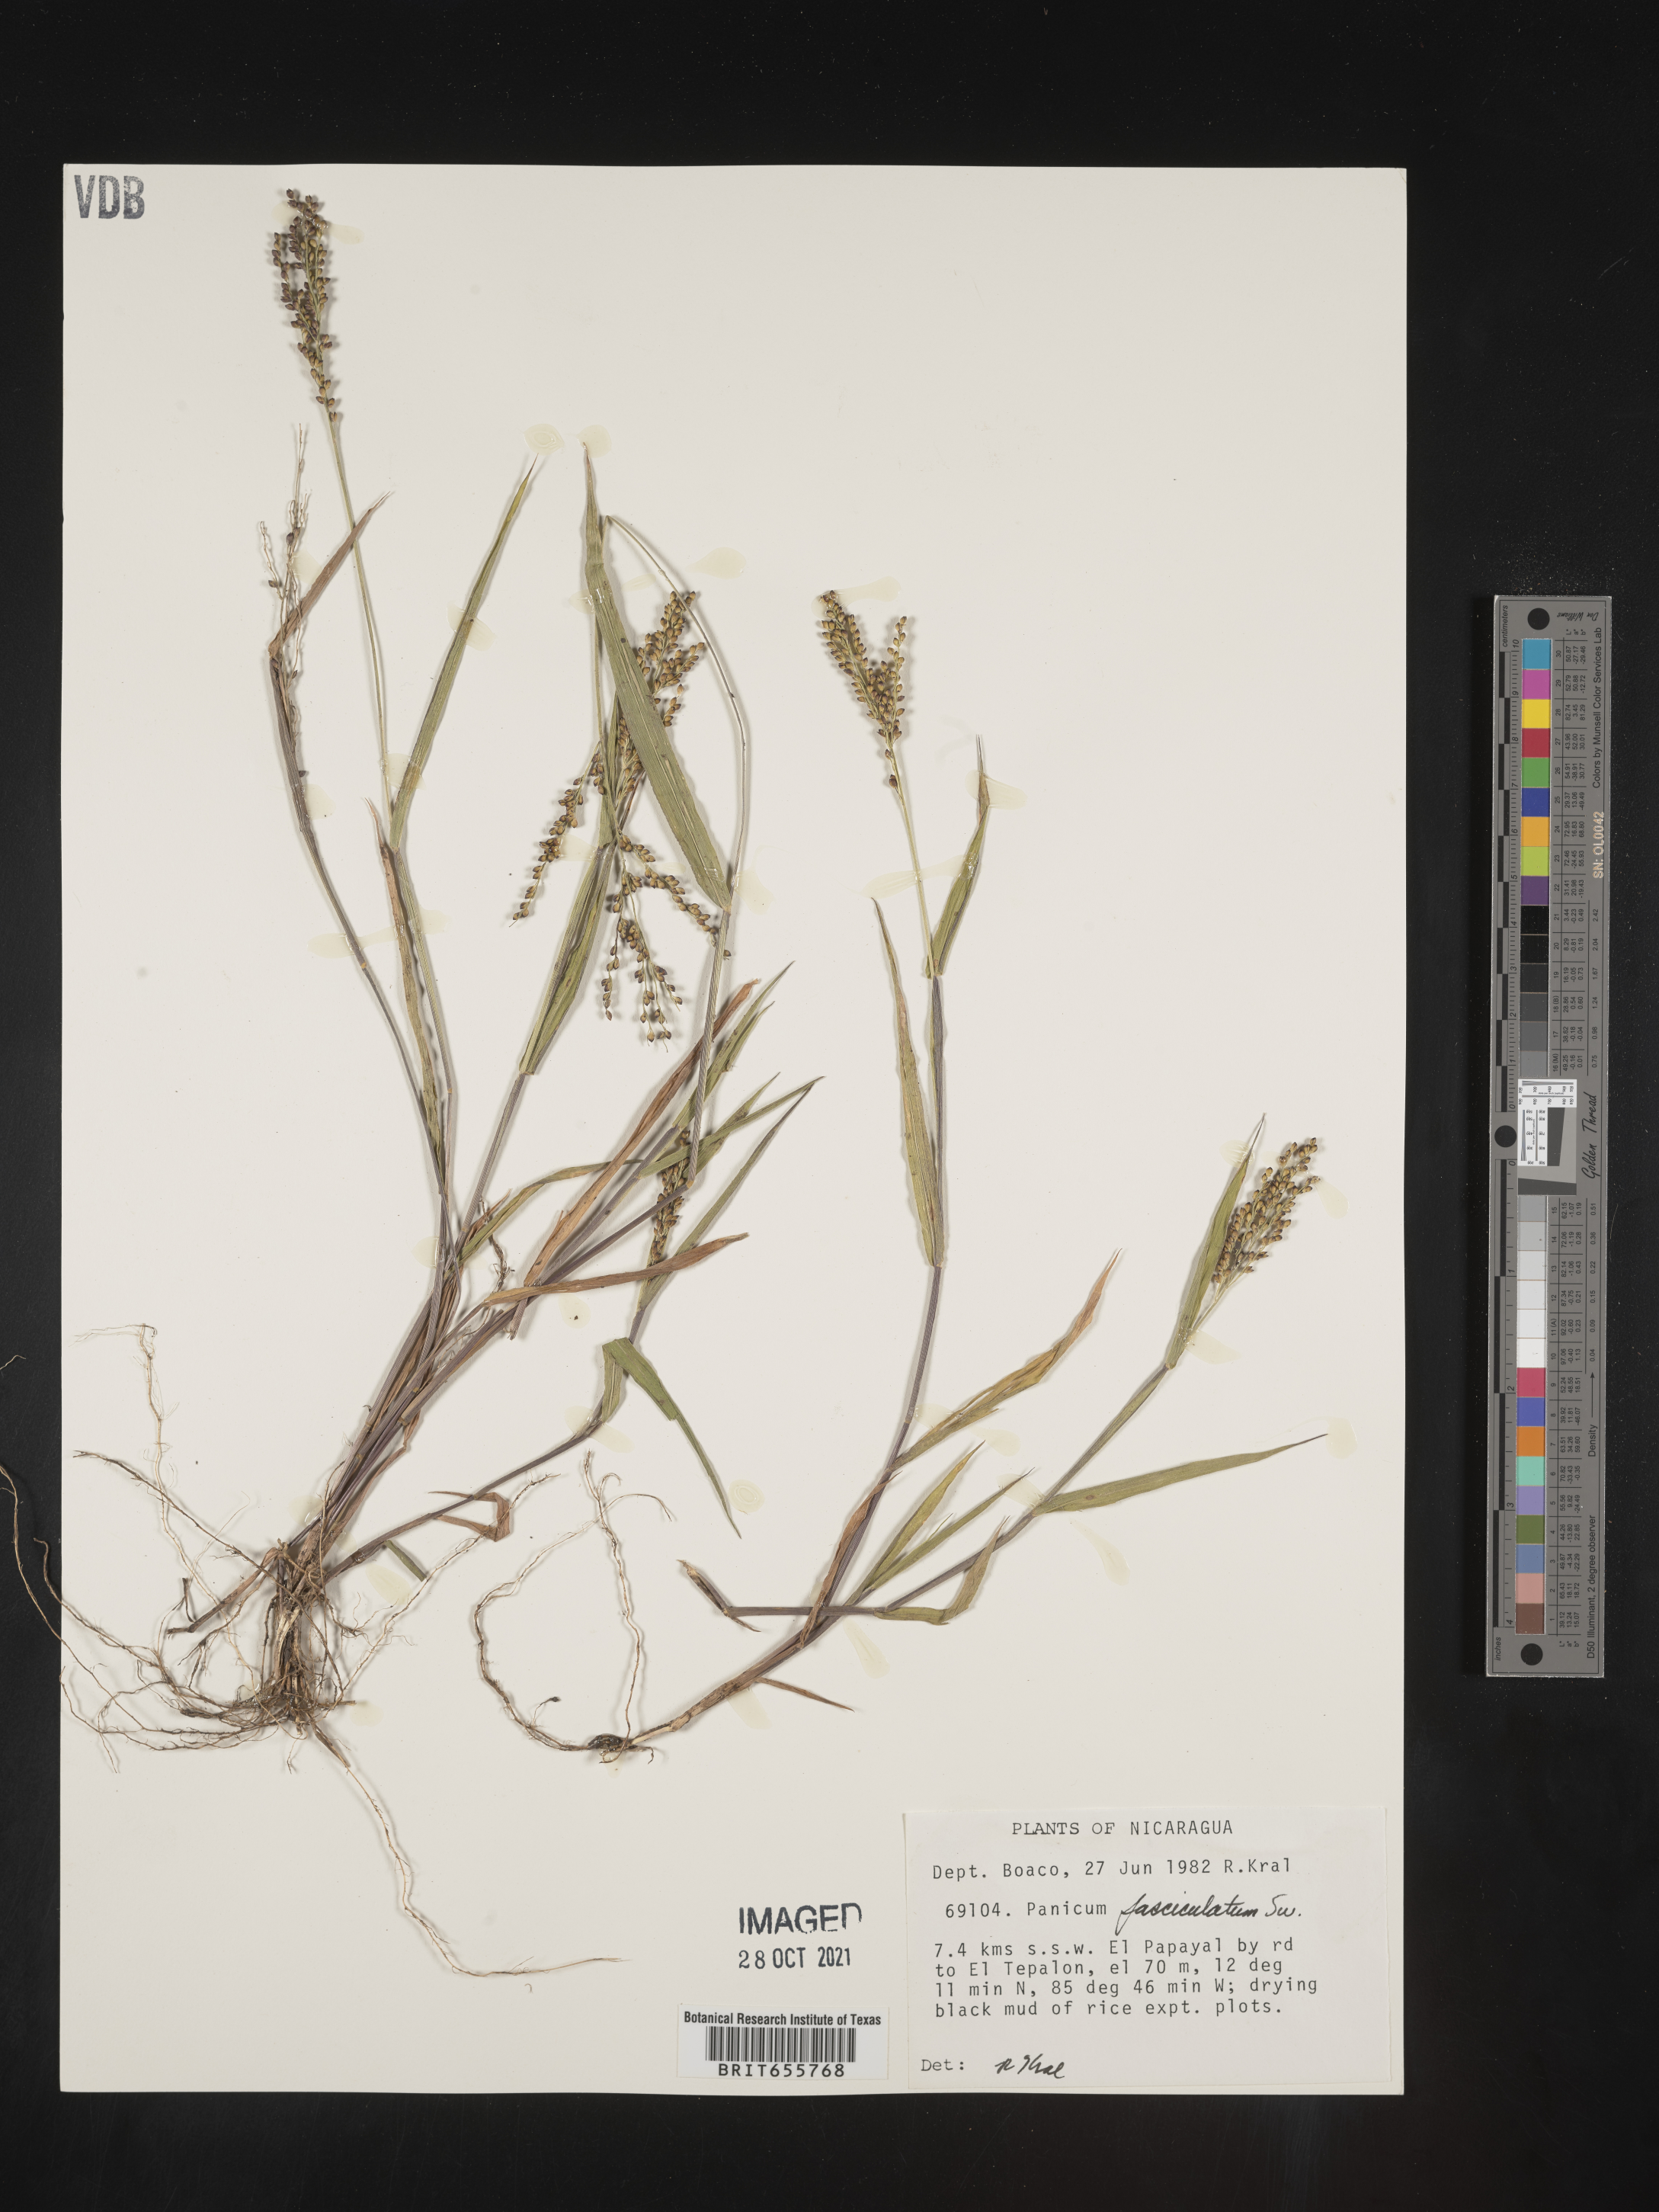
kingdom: Plantae
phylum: Tracheophyta
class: Liliopsida
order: Poales
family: Poaceae
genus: Panicum
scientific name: Panicum
